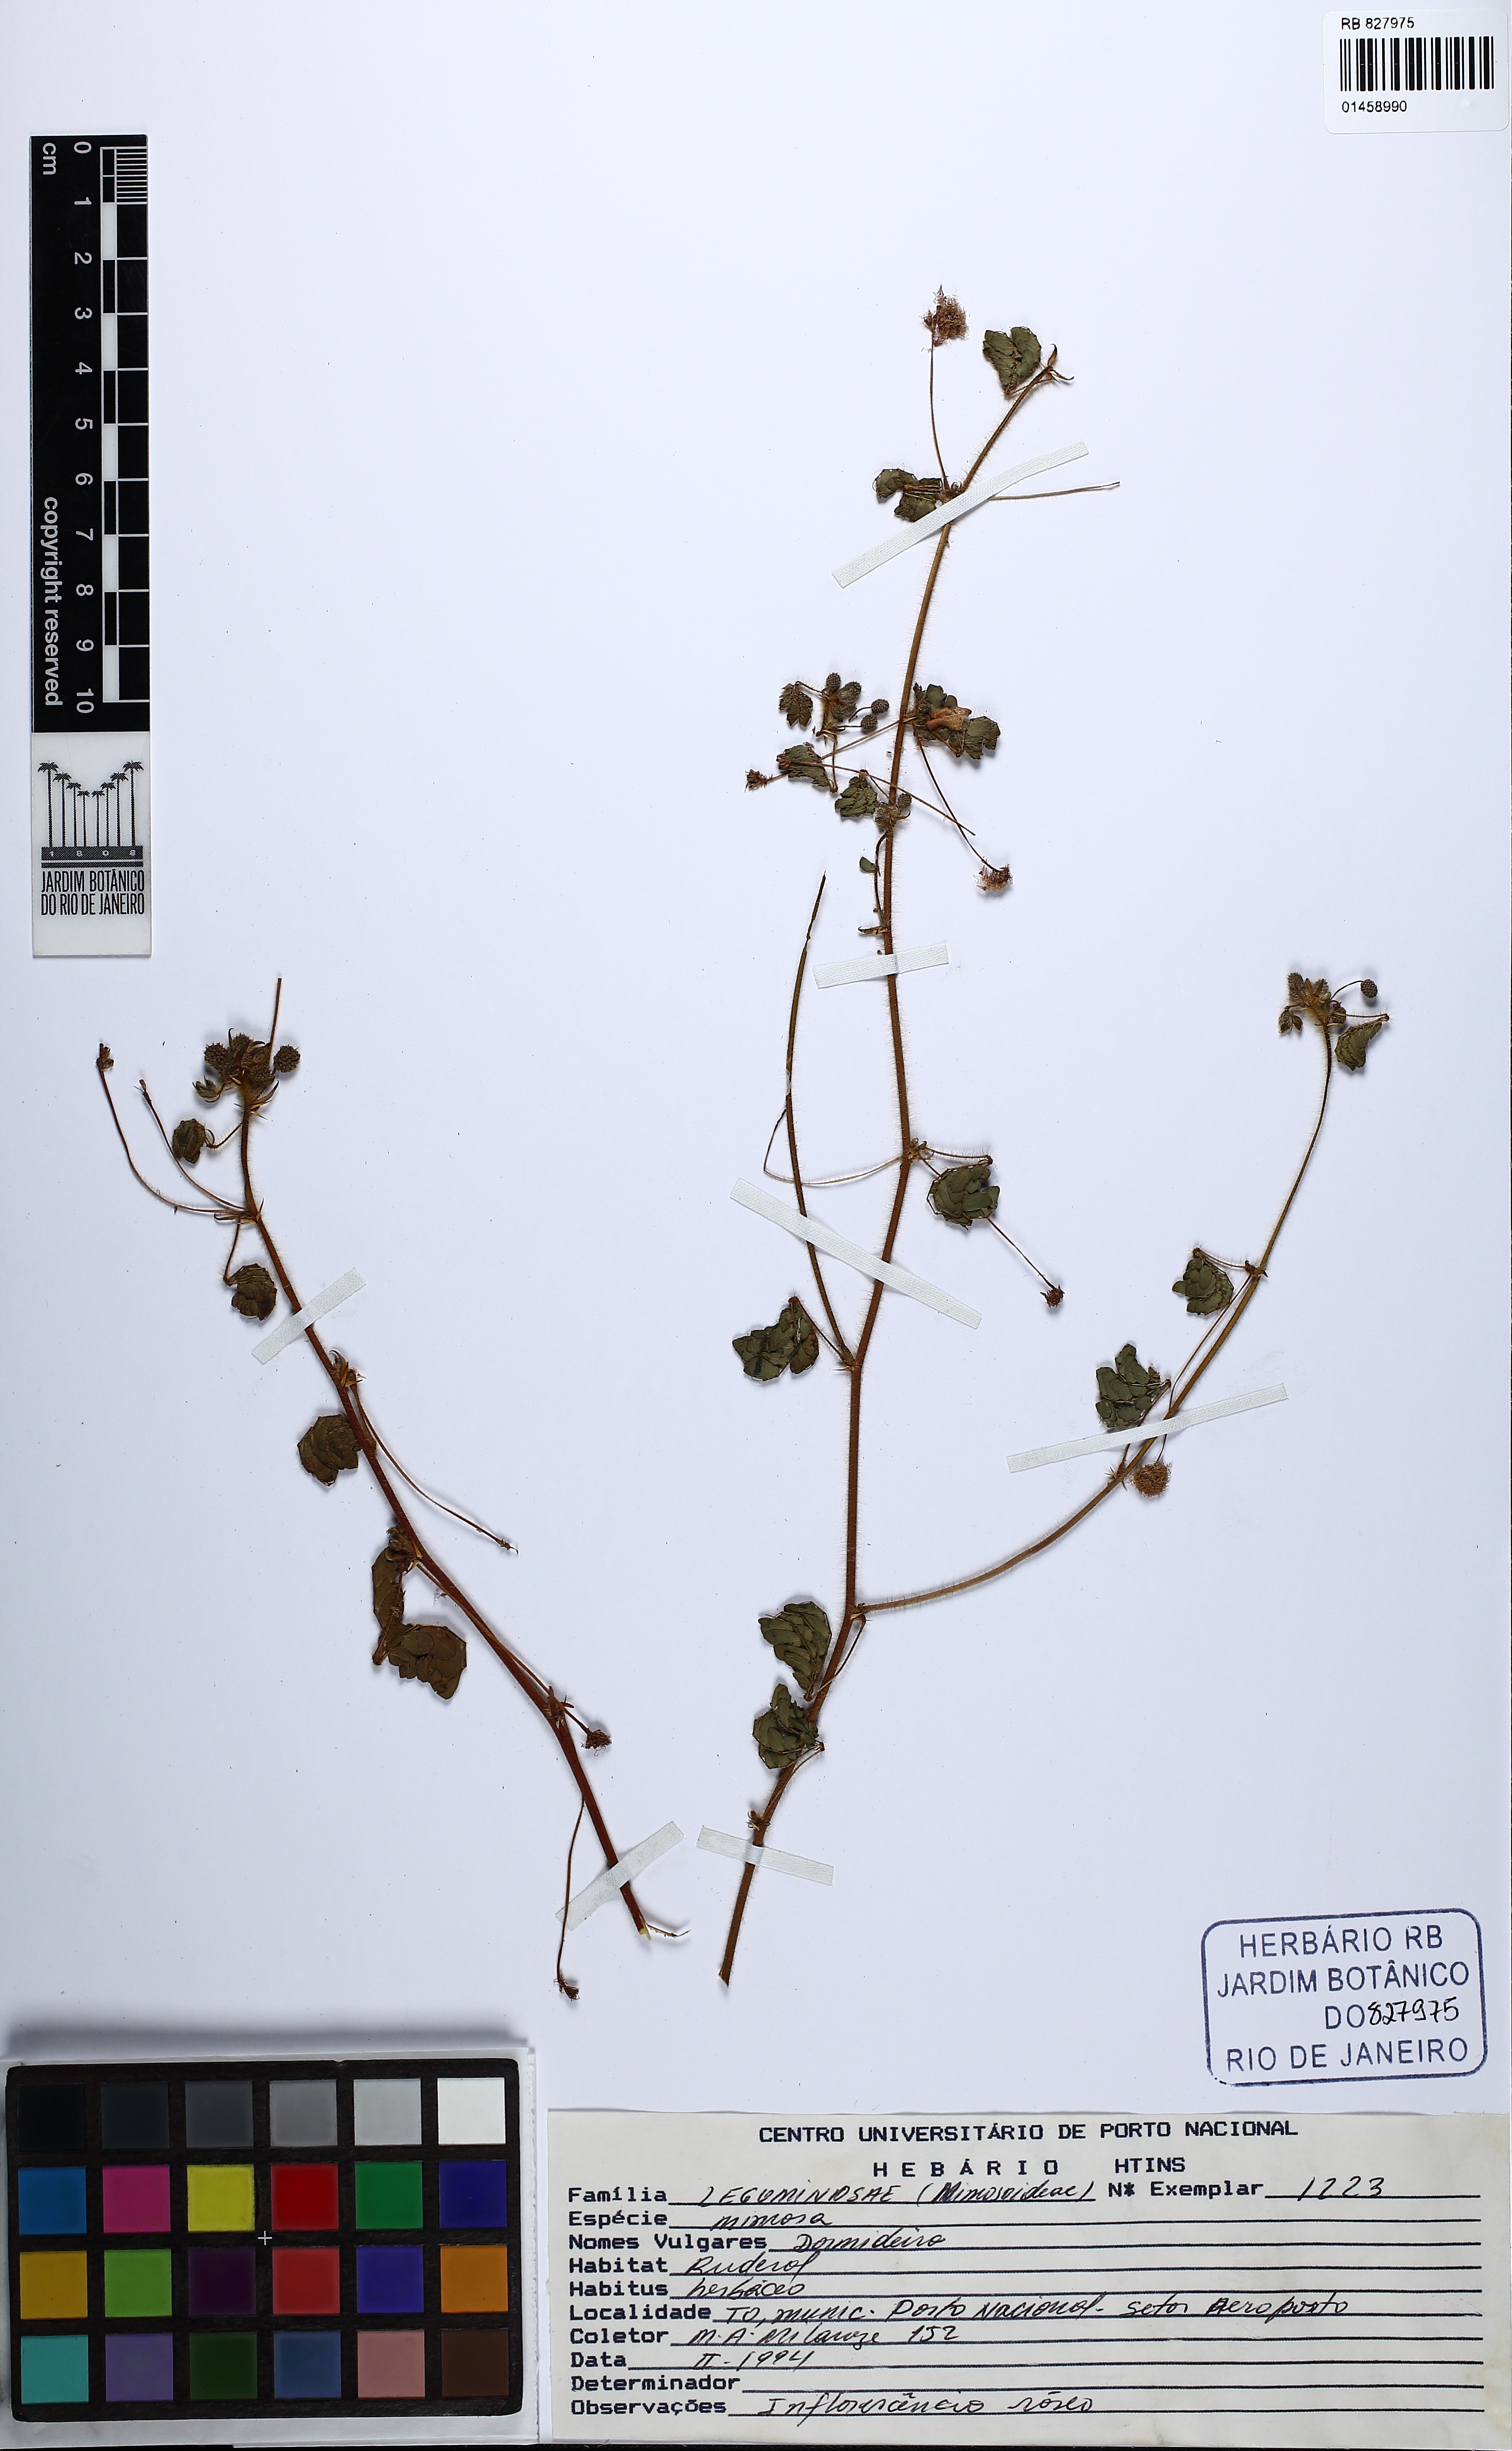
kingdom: Plantae
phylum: Tracheophyta
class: Magnoliopsida
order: Fabales
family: Fabaceae
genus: Mimosa
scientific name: Mimosa
